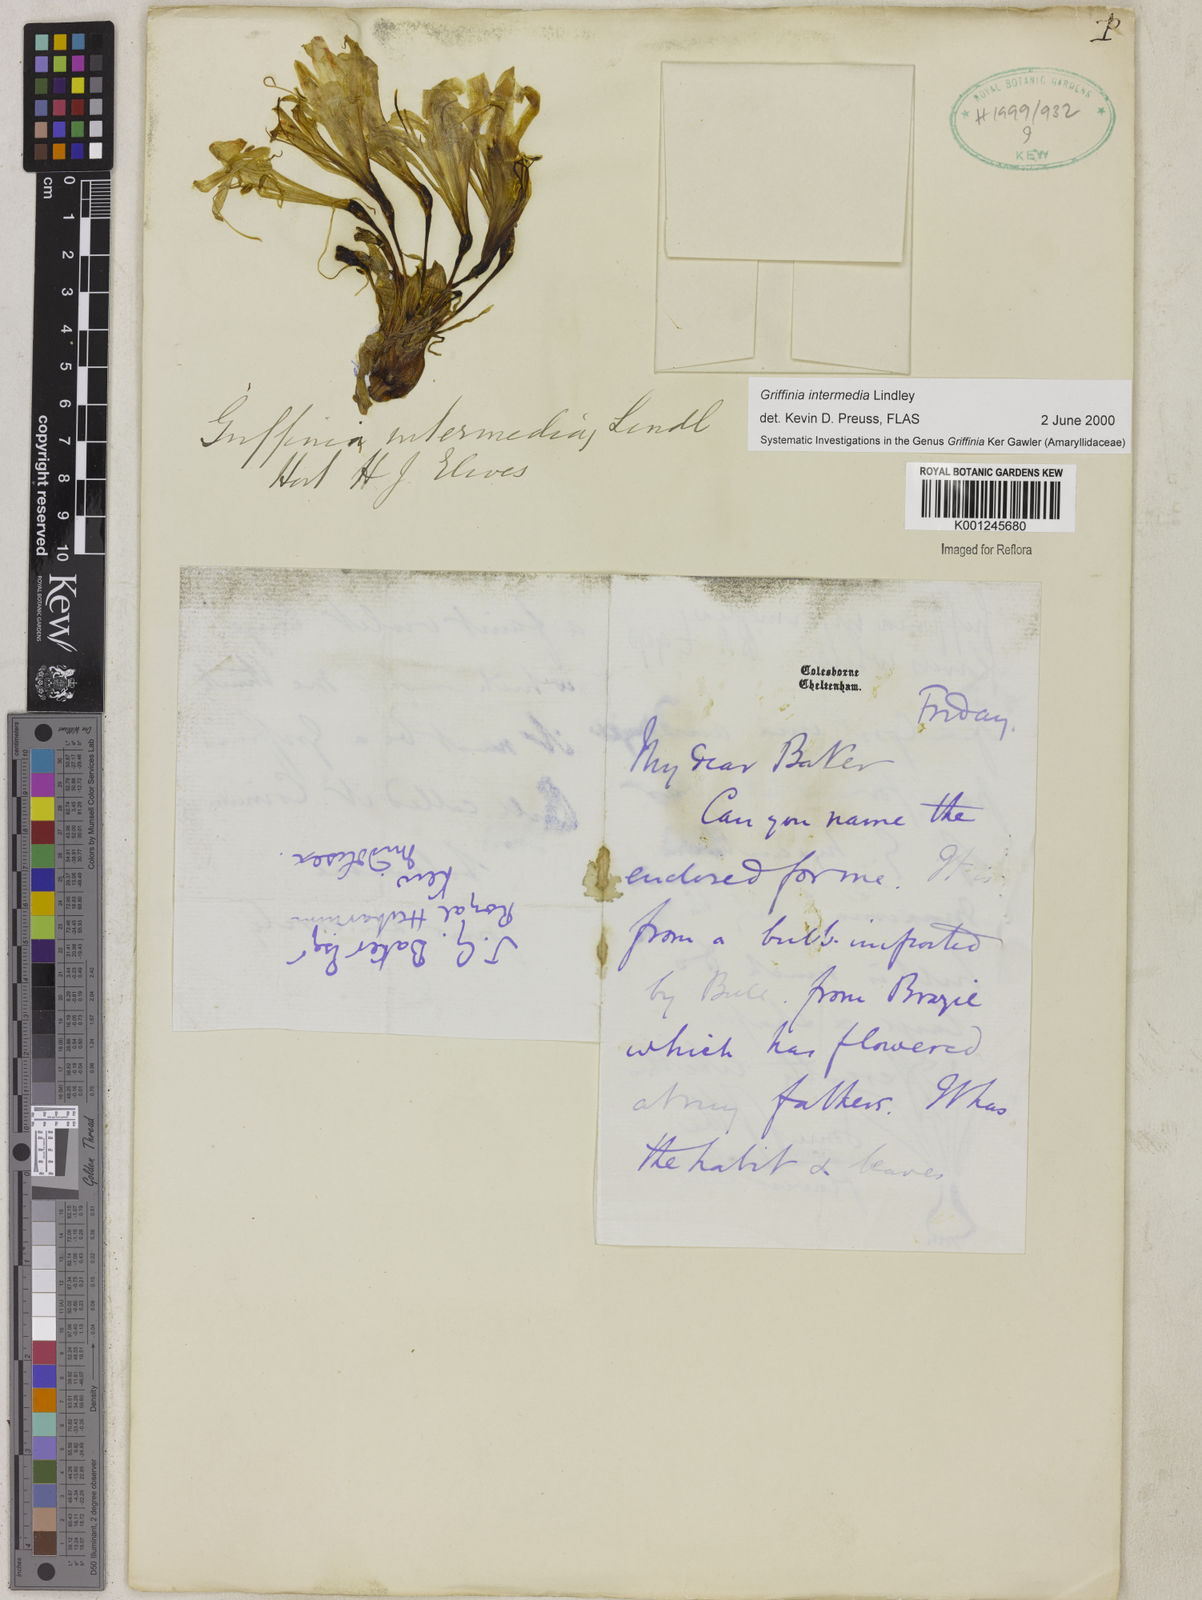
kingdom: Plantae
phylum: Tracheophyta
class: Liliopsida
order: Asparagales
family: Amaryllidaceae
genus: Griffinia
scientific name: Griffinia intermedia
